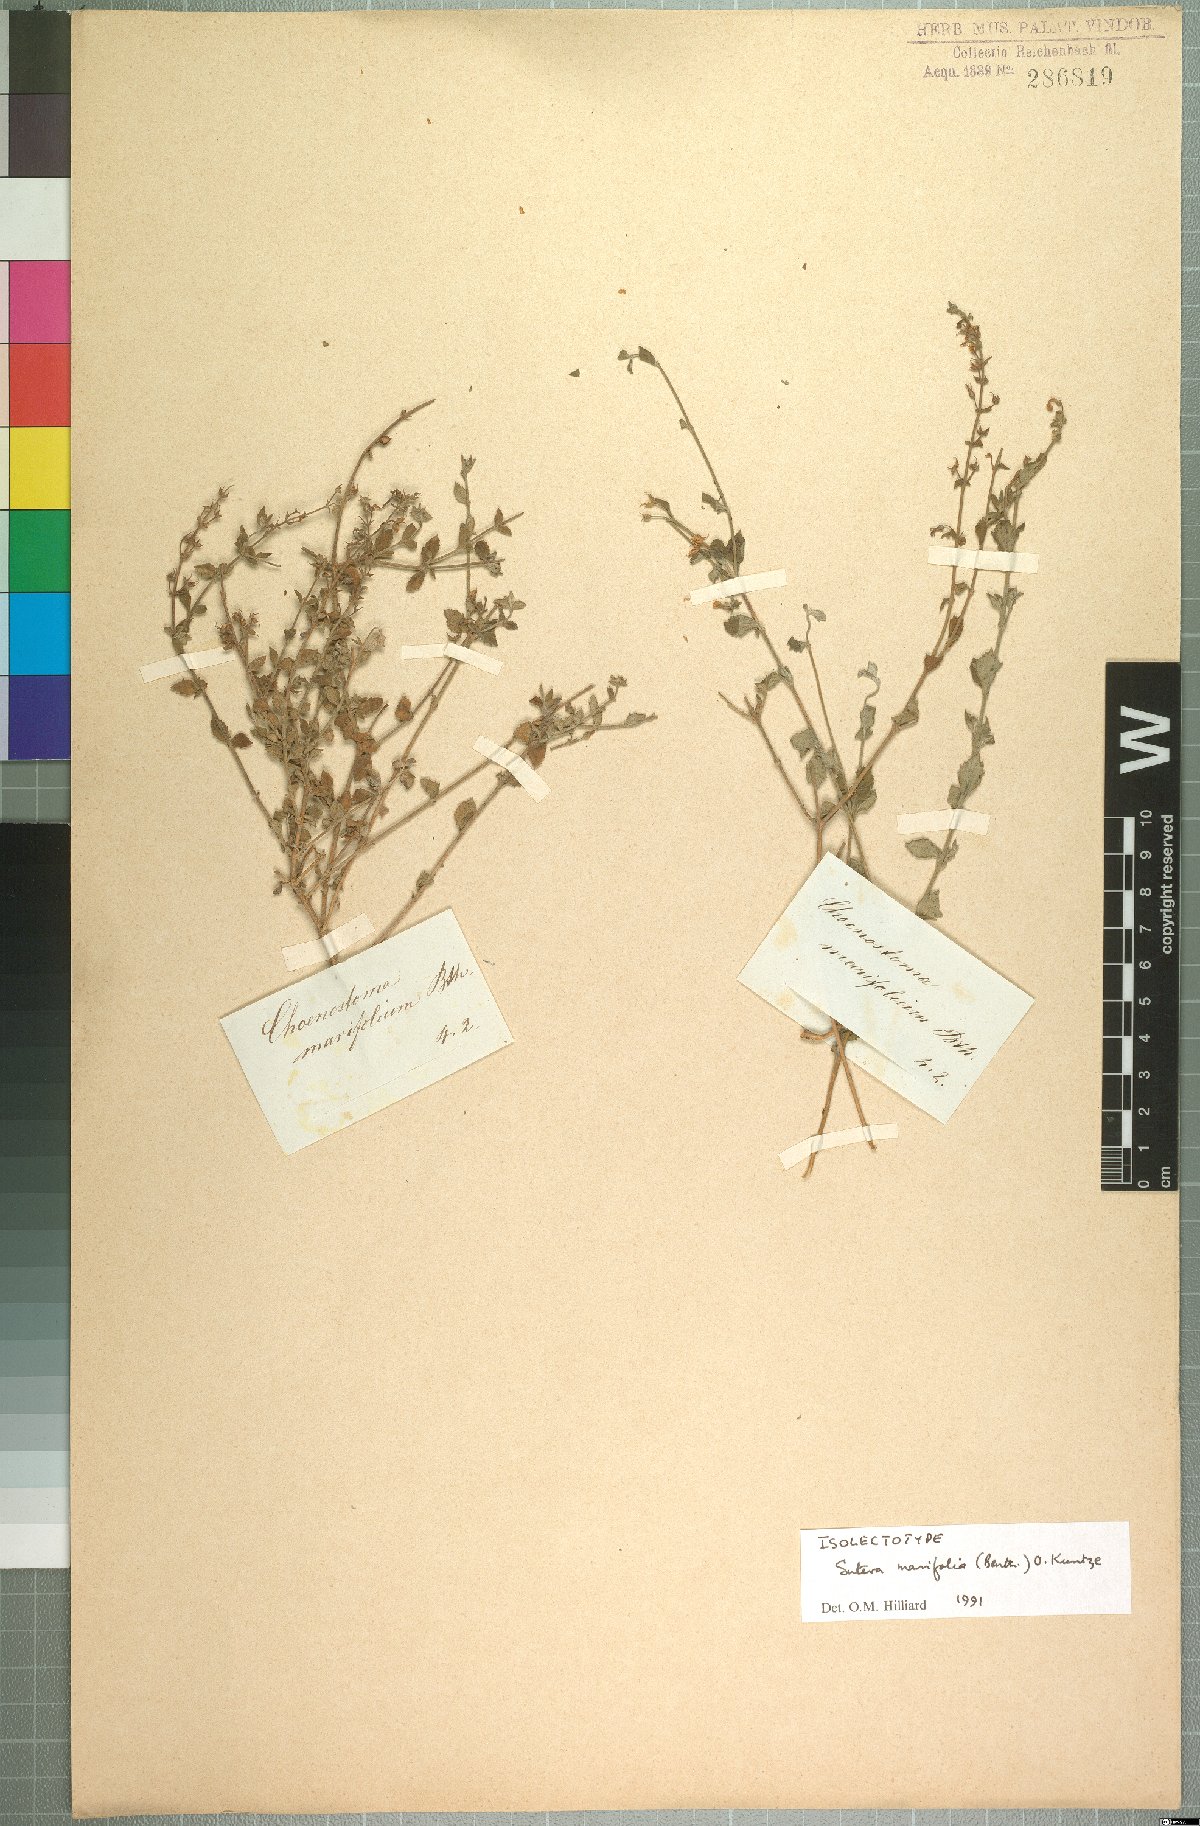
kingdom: Plantae
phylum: Tracheophyta
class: Magnoliopsida
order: Lamiales
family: Scrophulariaceae
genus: Chaenostoma
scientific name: Chaenostoma marifolium
